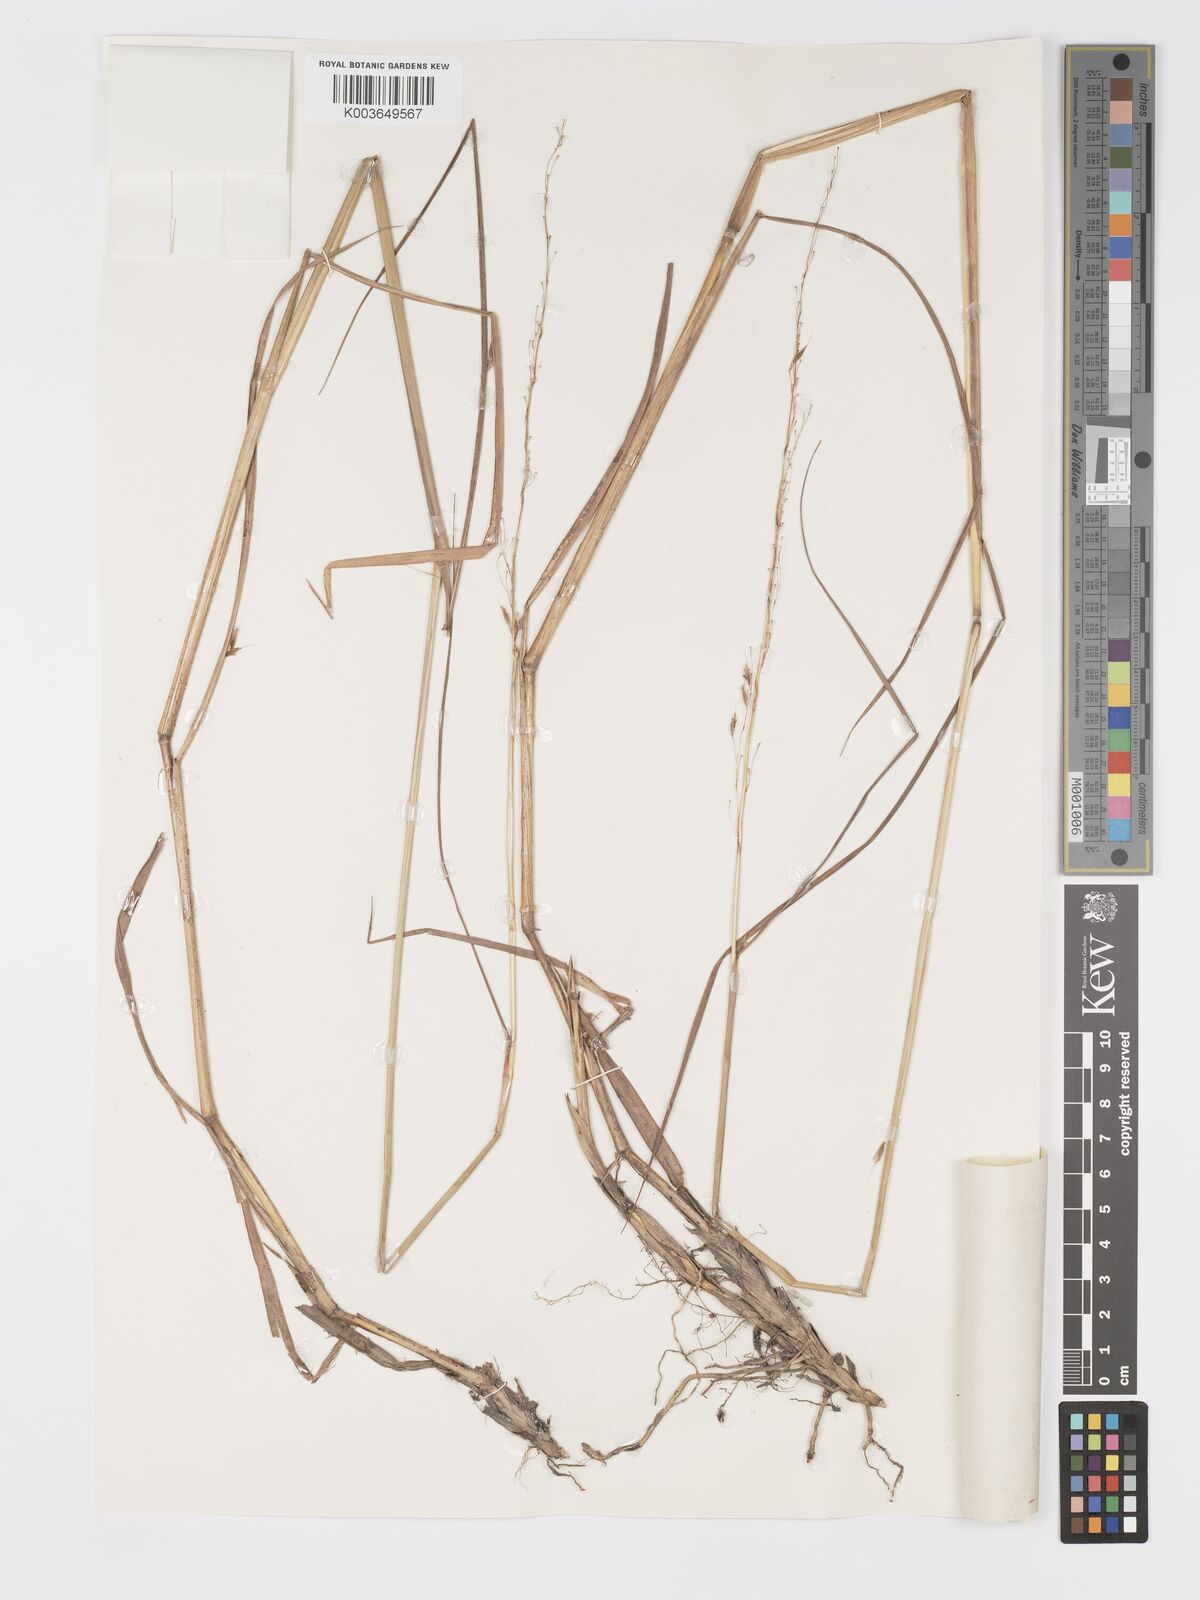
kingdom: Plantae
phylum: Tracheophyta
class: Liliopsida
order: Poales
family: Poaceae
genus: Sorghastrum
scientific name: Sorghastrum nudipes
